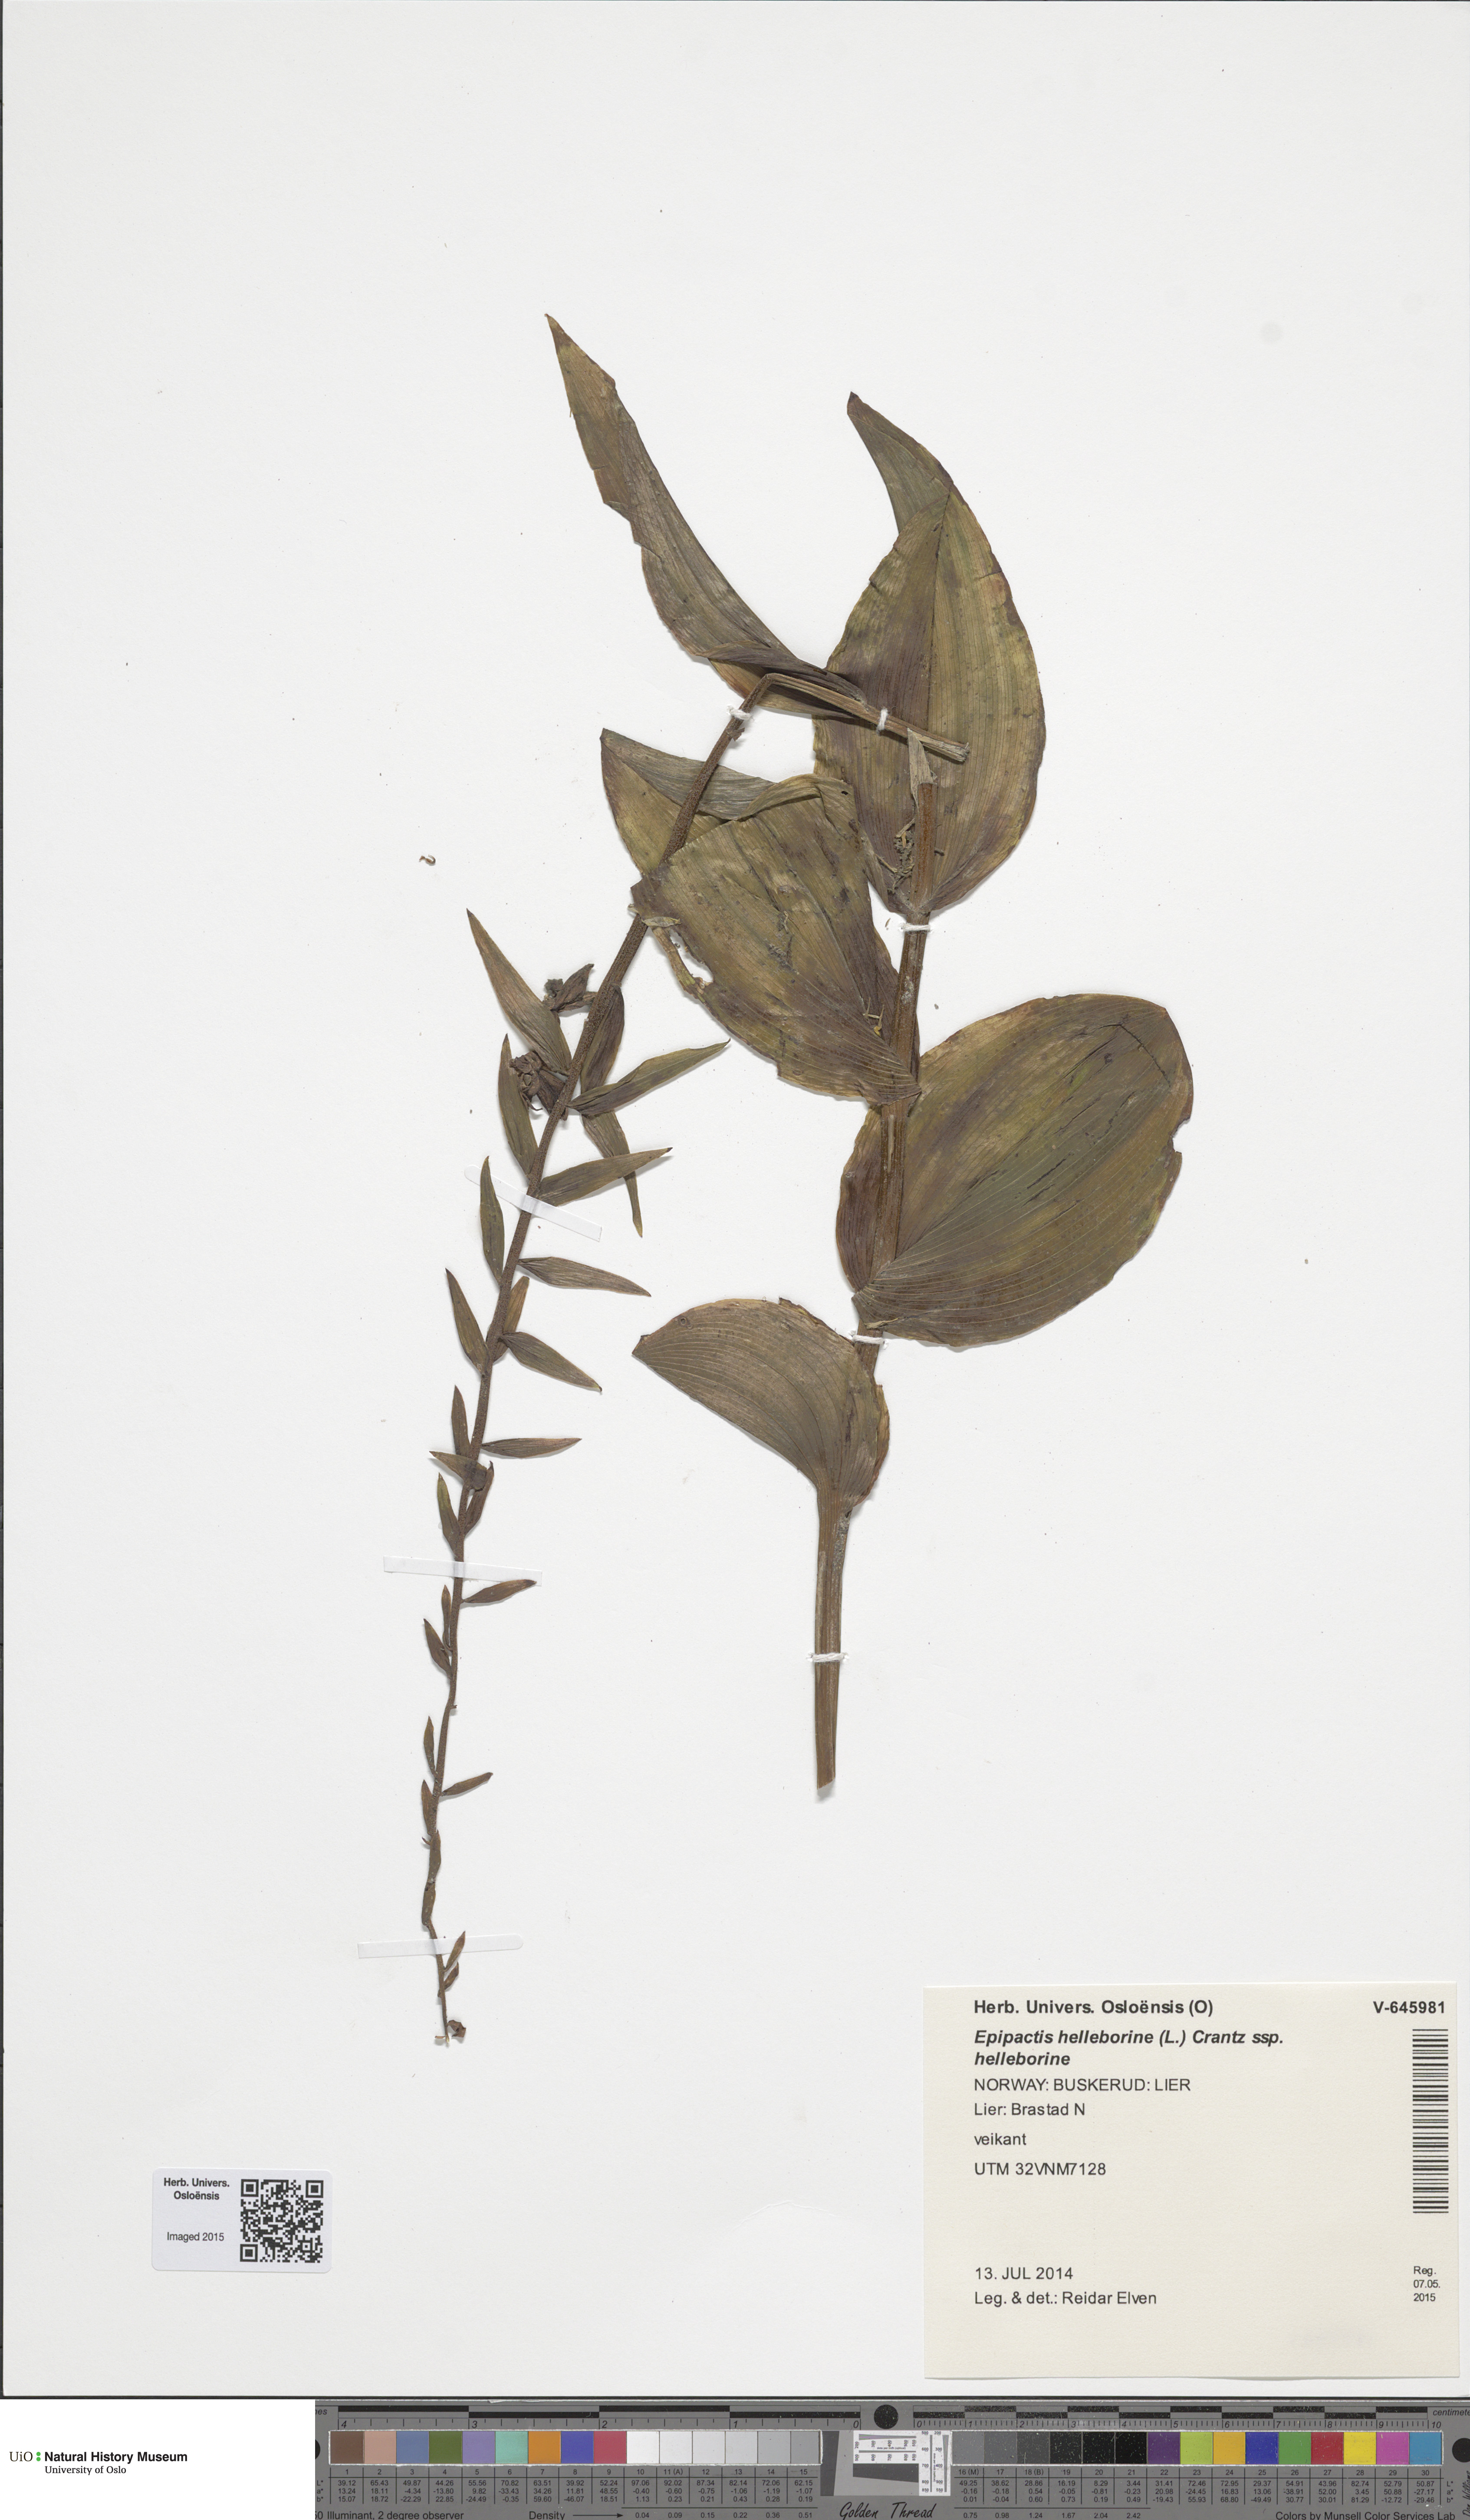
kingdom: Plantae
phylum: Tracheophyta
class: Liliopsida
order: Asparagales
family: Orchidaceae
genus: Epipactis
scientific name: Epipactis helleborine
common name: Broad-leaved helleborine
